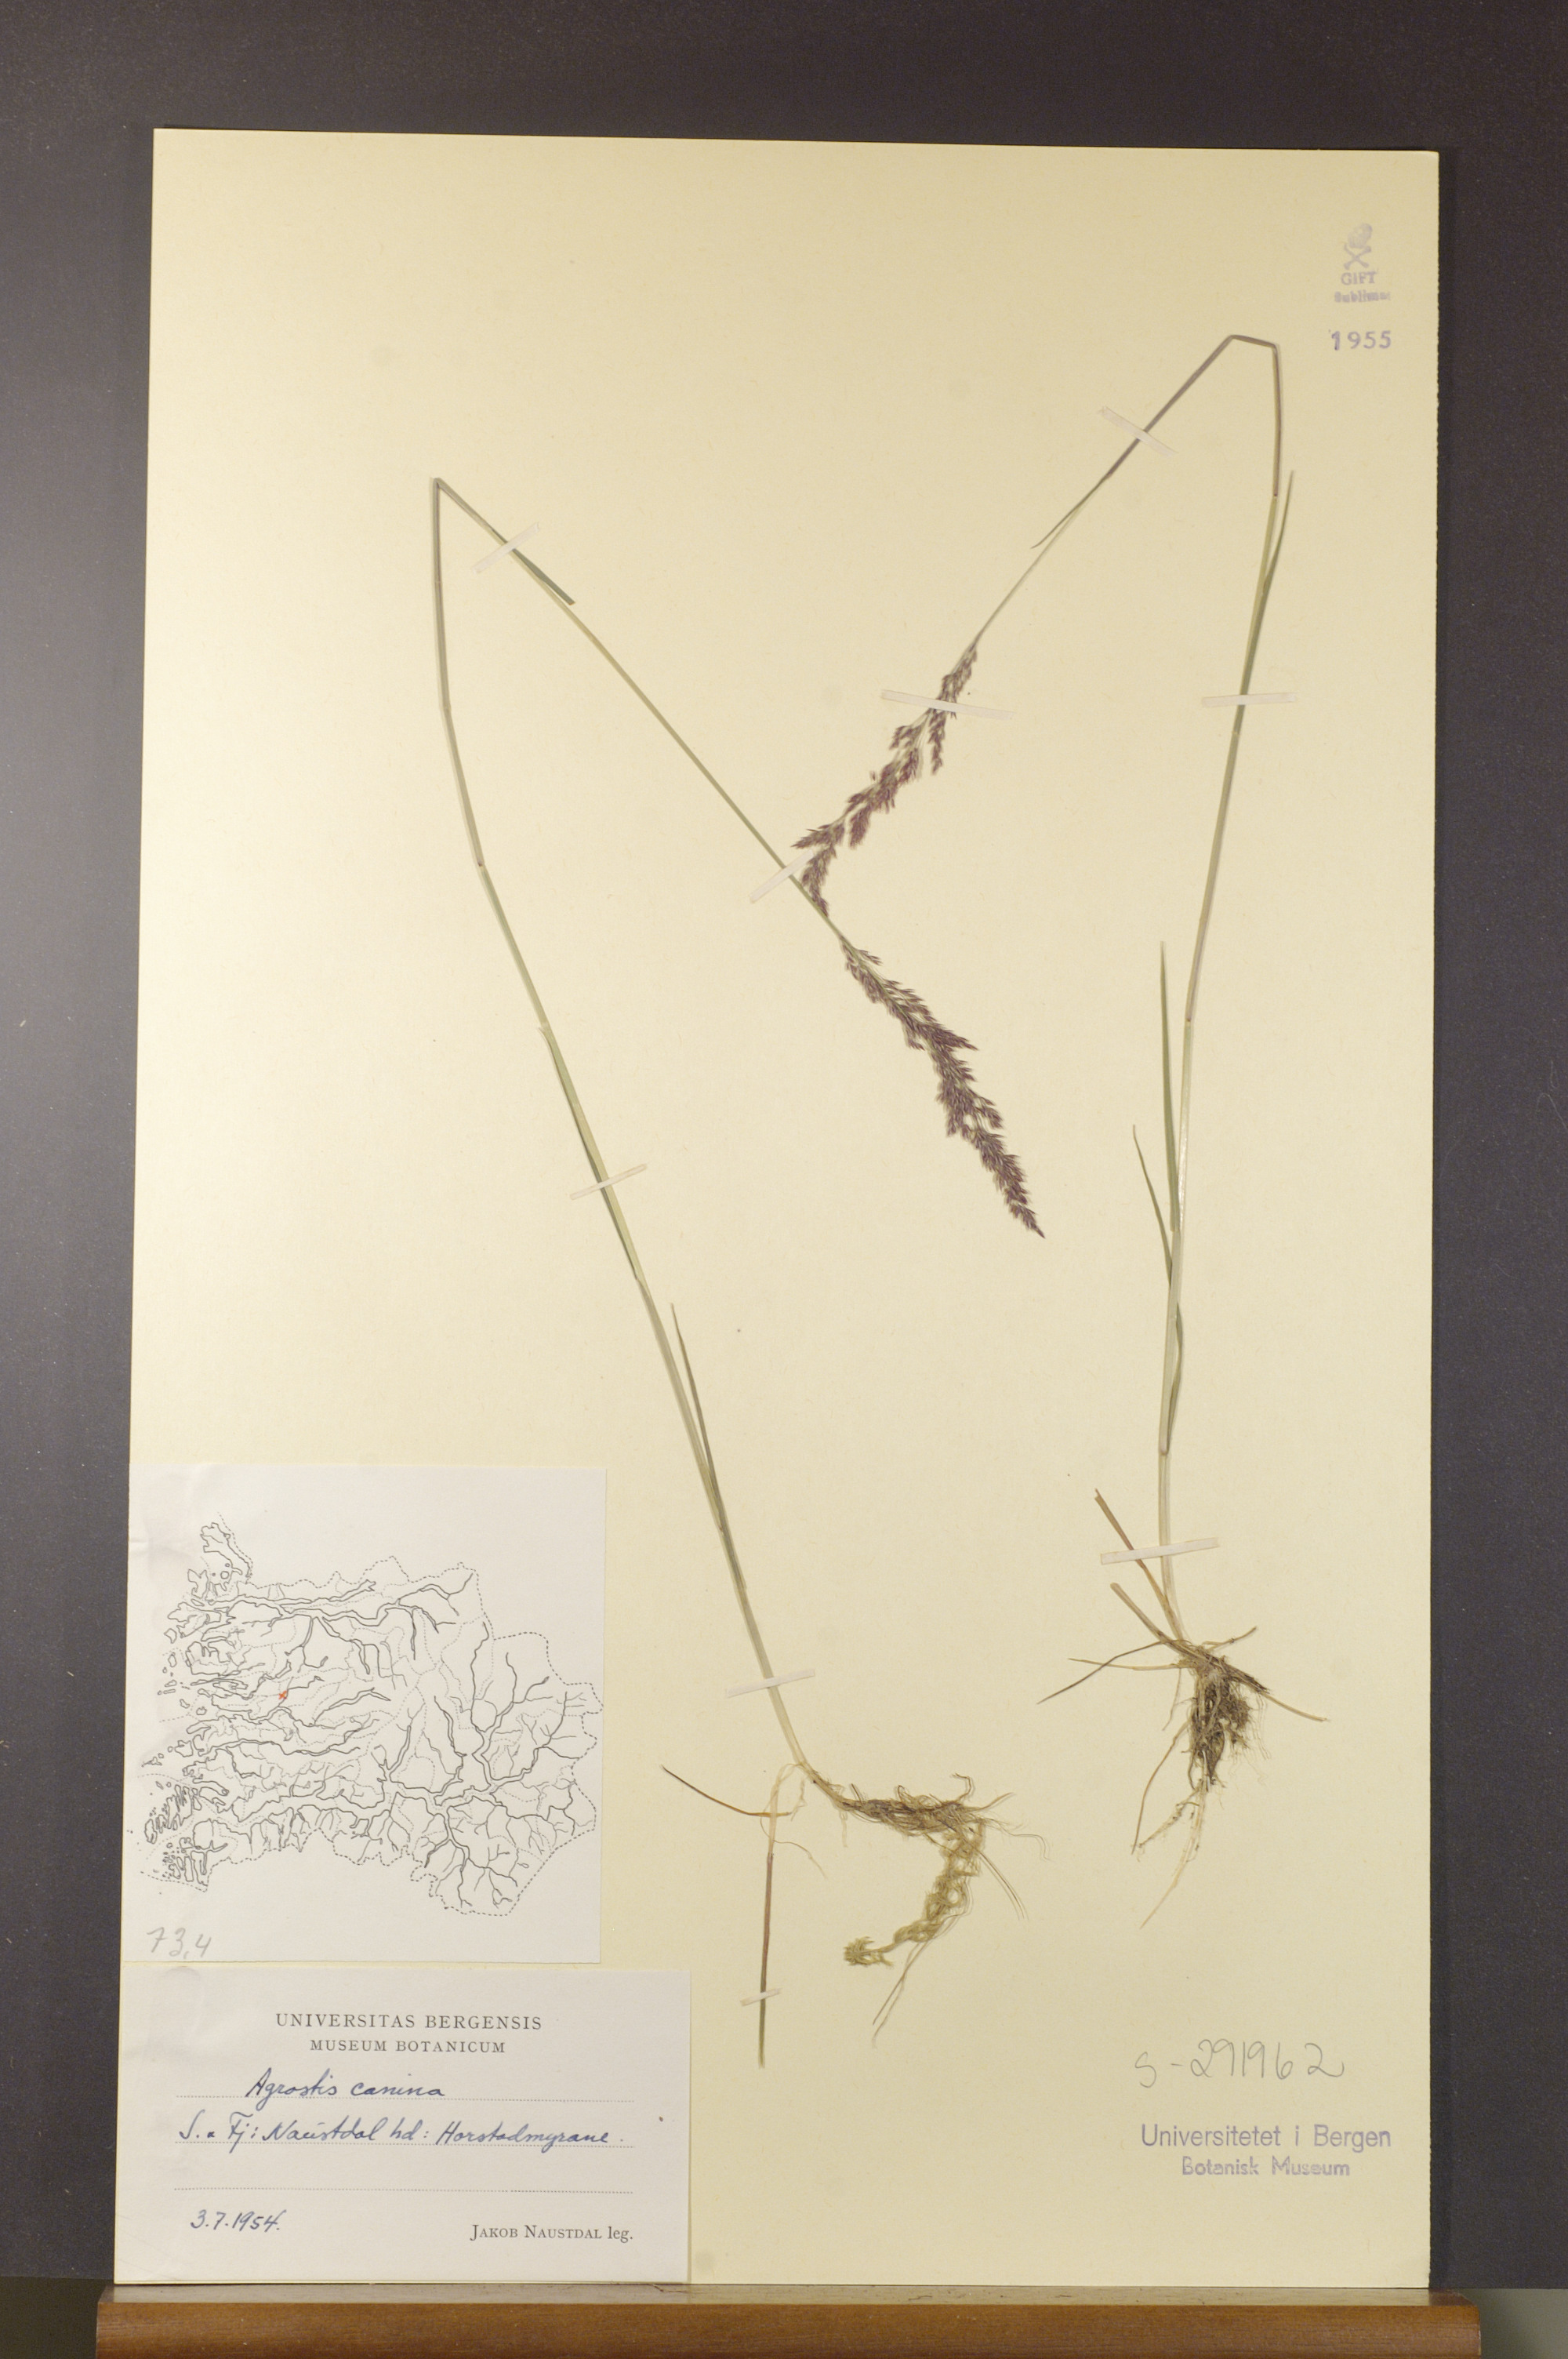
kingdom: Plantae
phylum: Tracheophyta
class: Liliopsida
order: Poales
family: Poaceae
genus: Agrostis
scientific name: Agrostis canina
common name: Velvet bent
